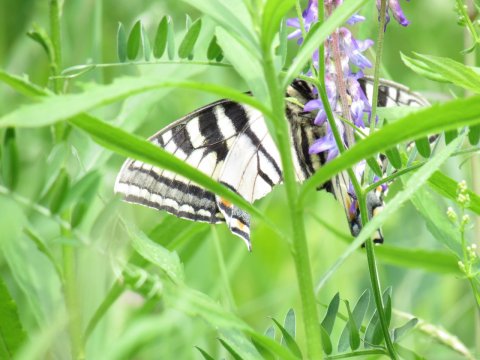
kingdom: Animalia
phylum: Arthropoda
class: Insecta
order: Lepidoptera
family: Papilionidae
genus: Pterourus
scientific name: Pterourus canadensis
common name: Canadian Tiger Swallowtail
